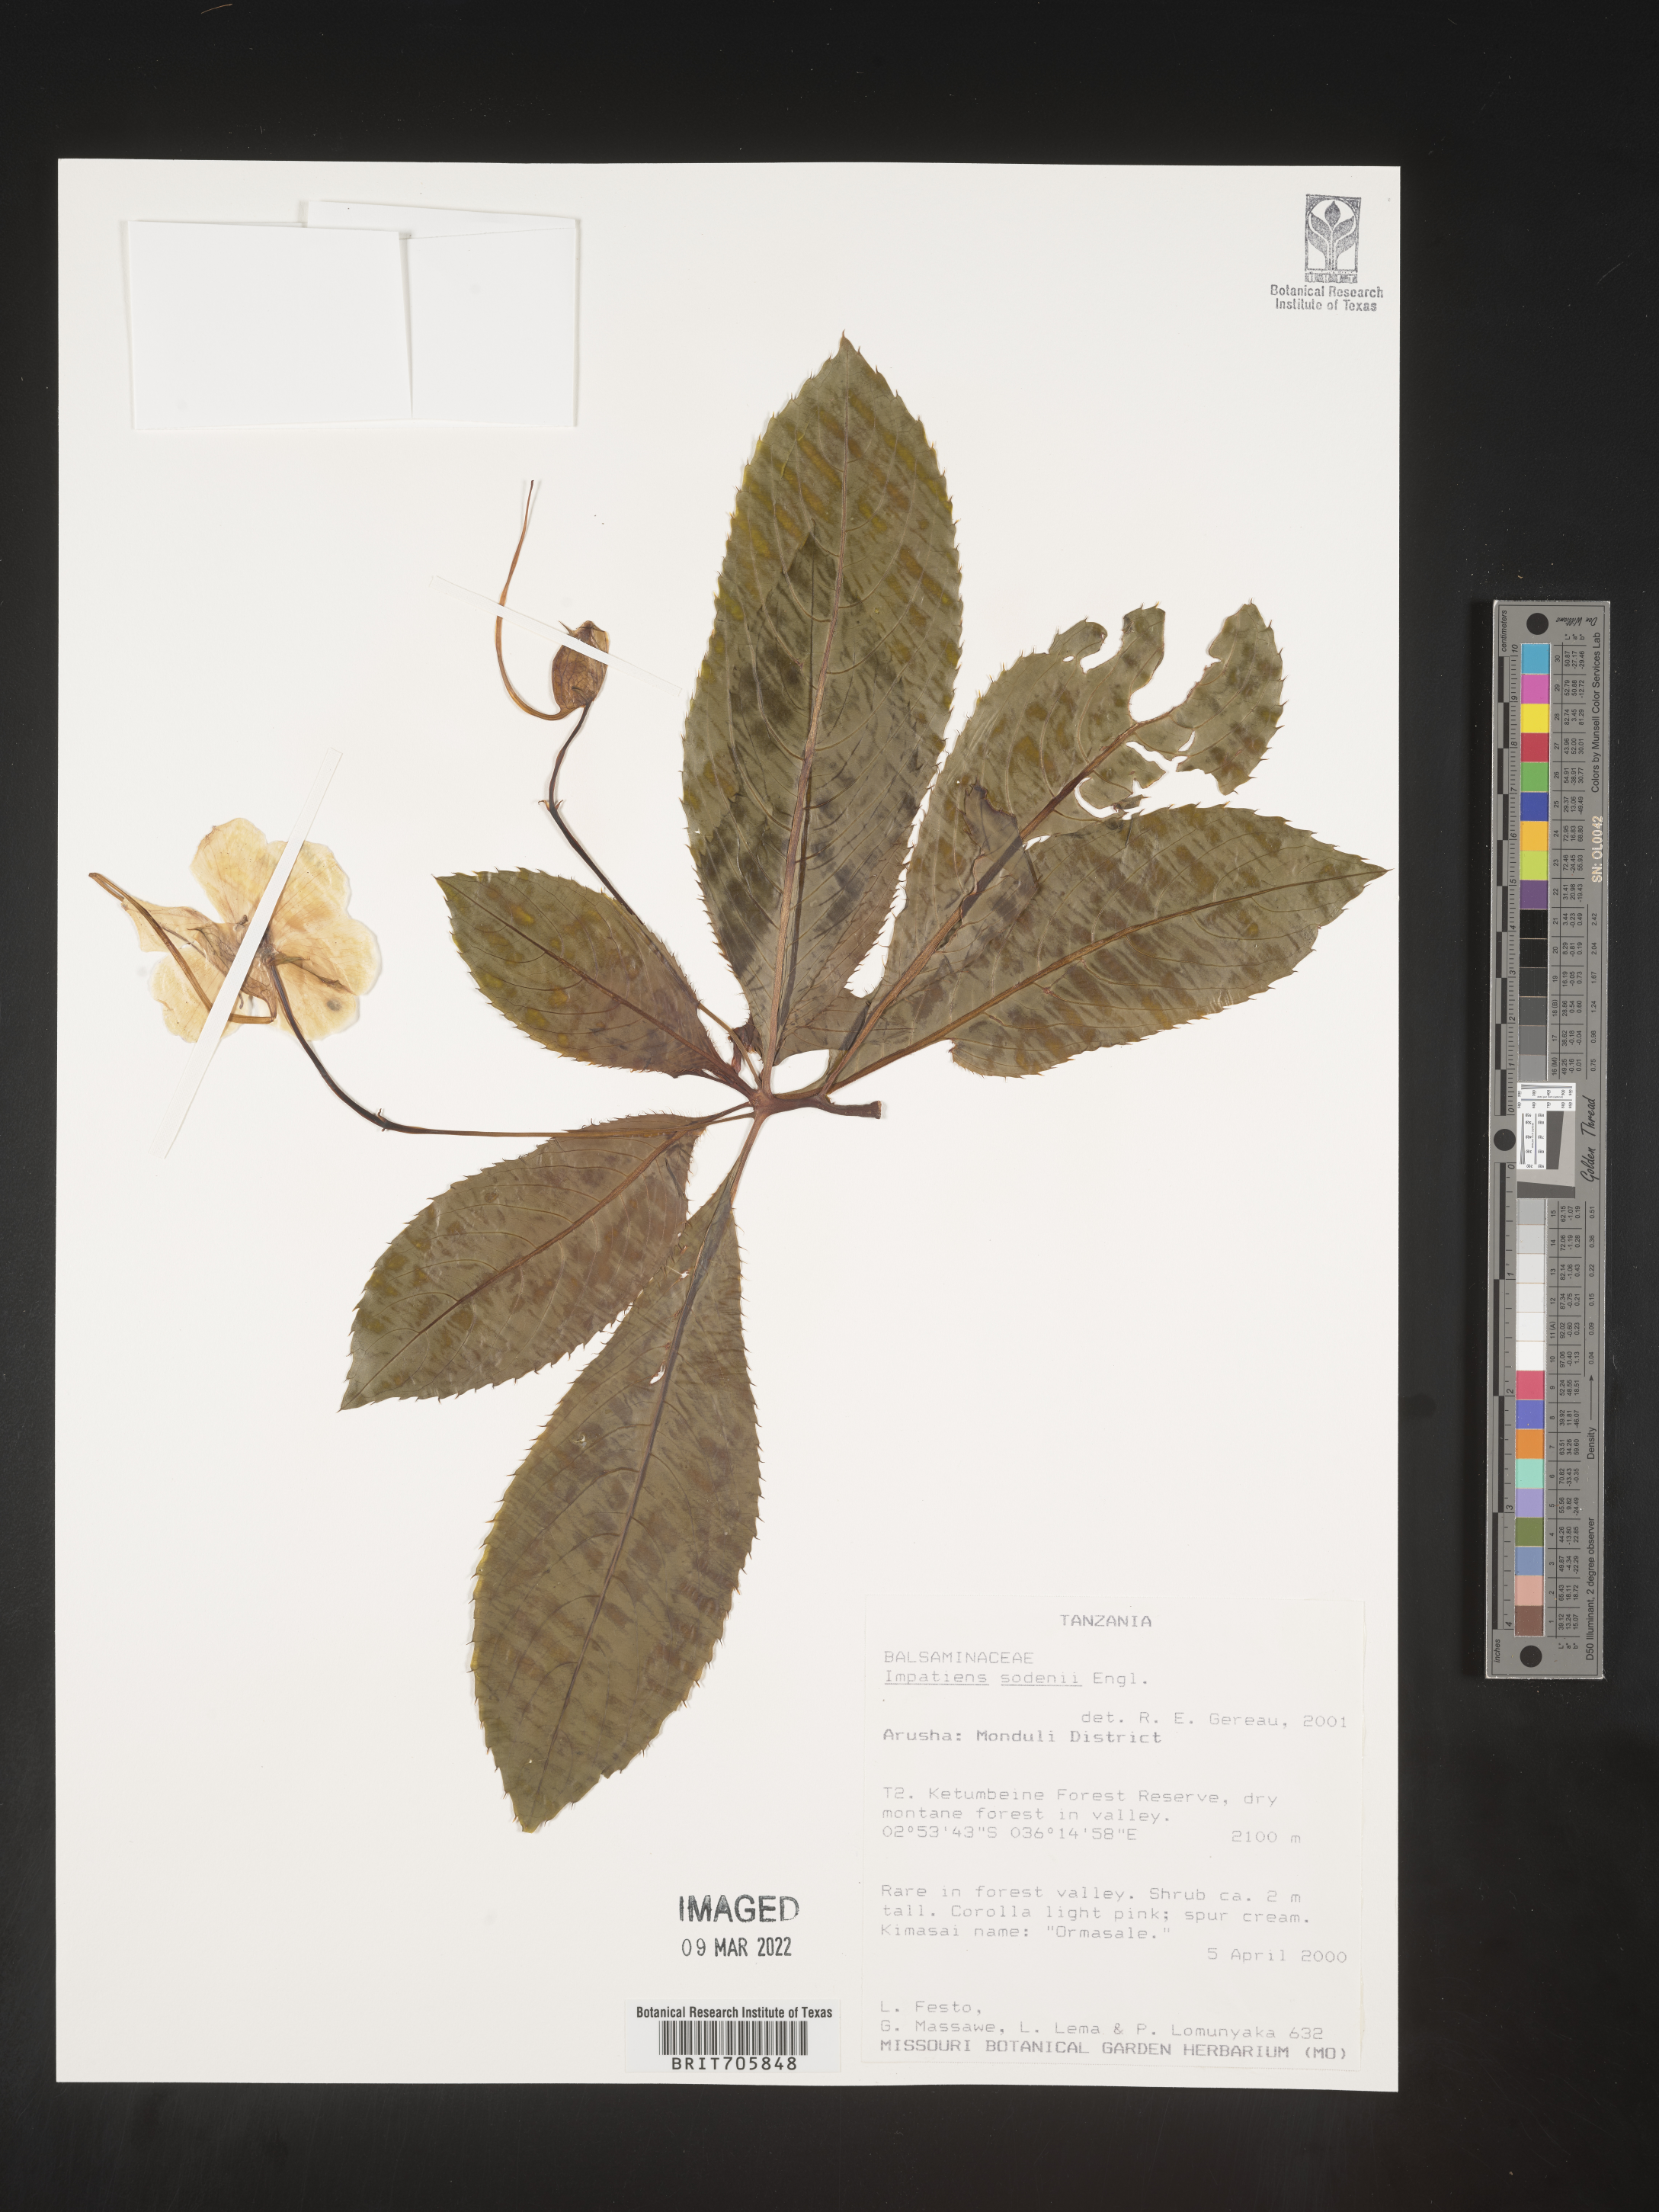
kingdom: Plantae
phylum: Tracheophyta
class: Magnoliopsida
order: Ericales
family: Balsaminaceae
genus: Impatiens
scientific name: Impatiens
